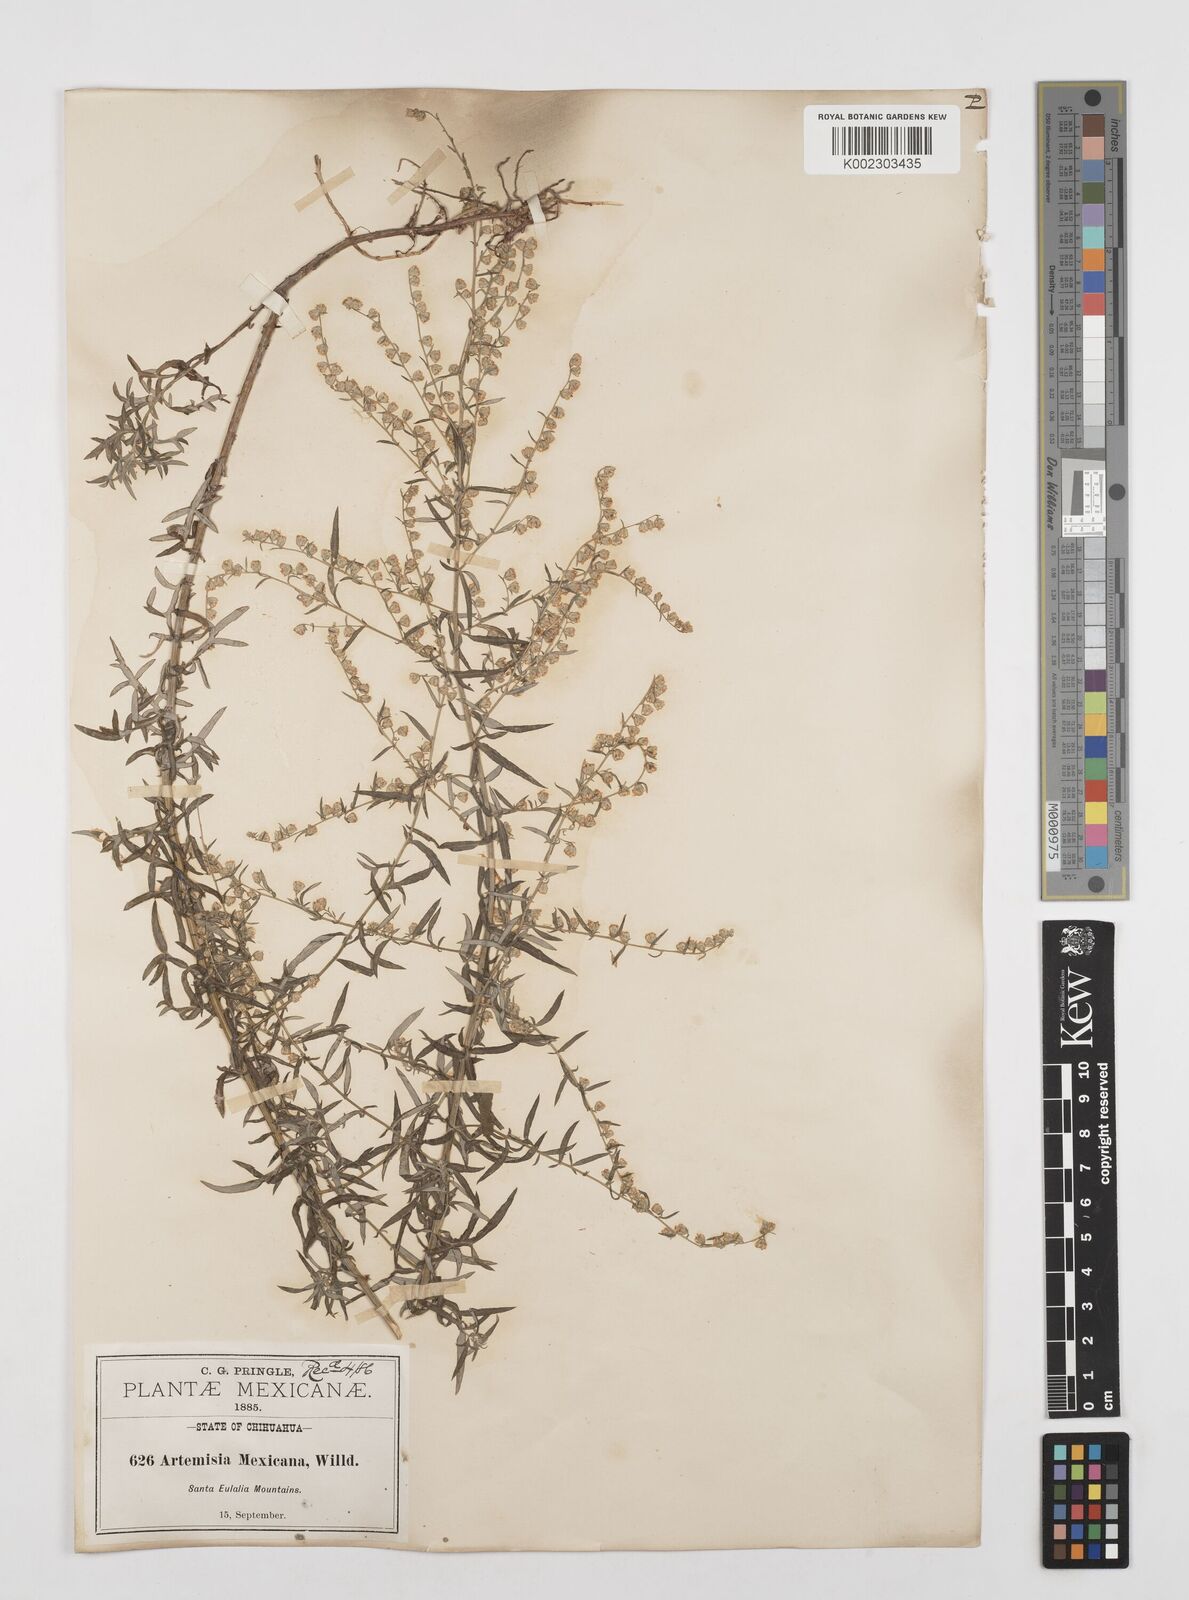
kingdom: Plantae
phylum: Tracheophyta
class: Magnoliopsida
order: Asterales
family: Asteraceae
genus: Artemisia
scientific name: Artemisia ludoviciana
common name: Western mugwort
